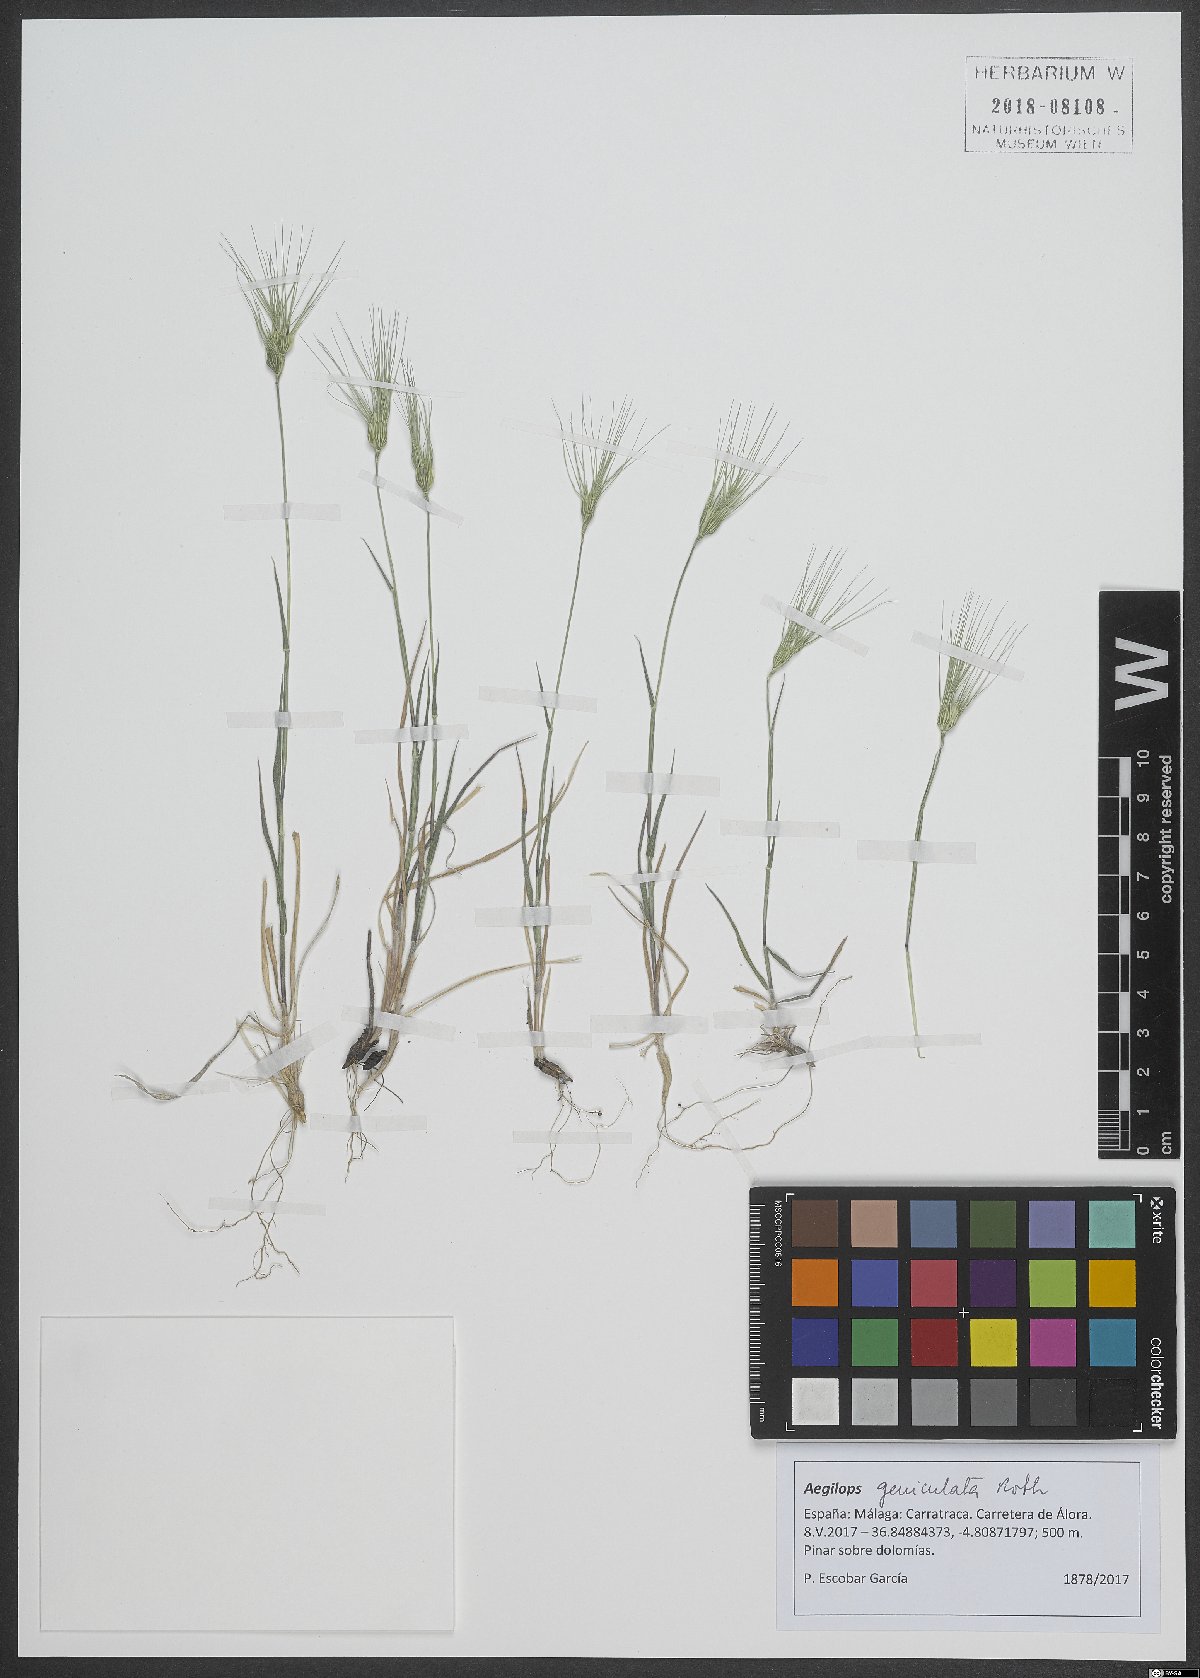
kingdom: Plantae
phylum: Tracheophyta
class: Liliopsida
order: Poales
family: Poaceae
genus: Aegilops
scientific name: Aegilops geniculata
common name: Ovate goat grass
